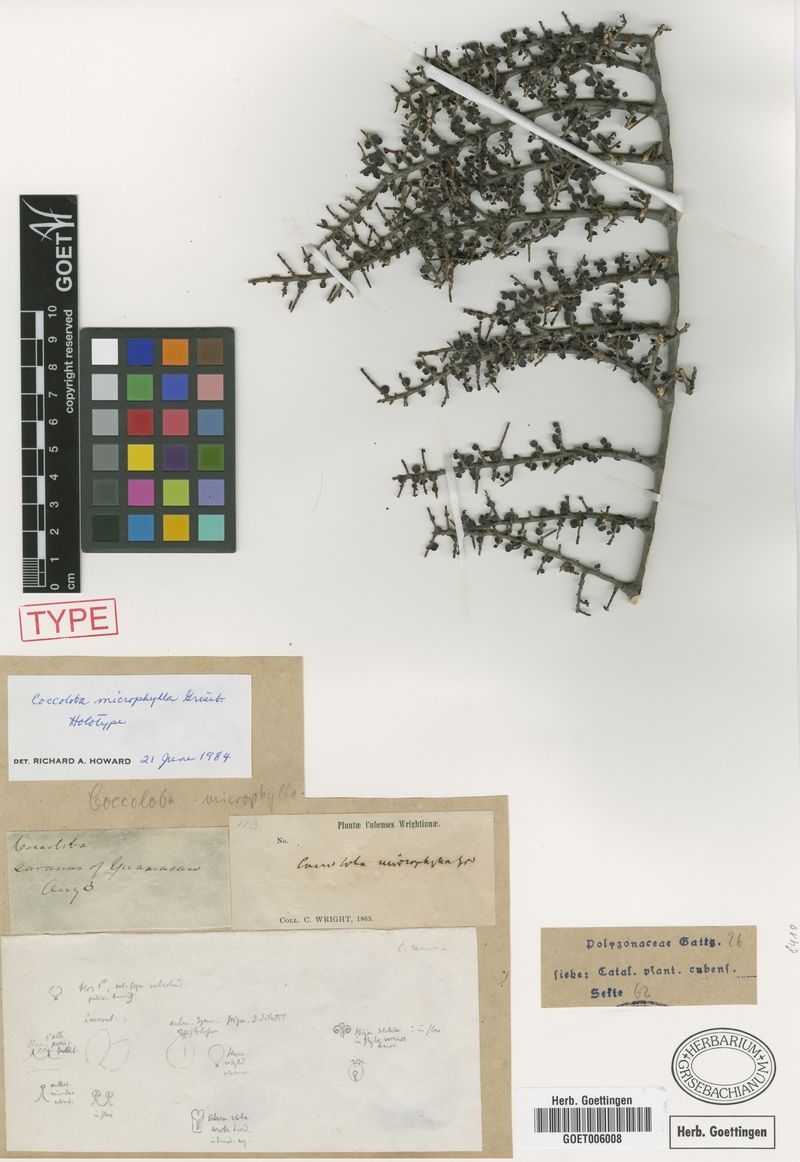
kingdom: Plantae
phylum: Tracheophyta
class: Magnoliopsida
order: Caryophyllales
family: Polygonaceae
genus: Coccoloba
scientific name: Coccoloba microphylla
